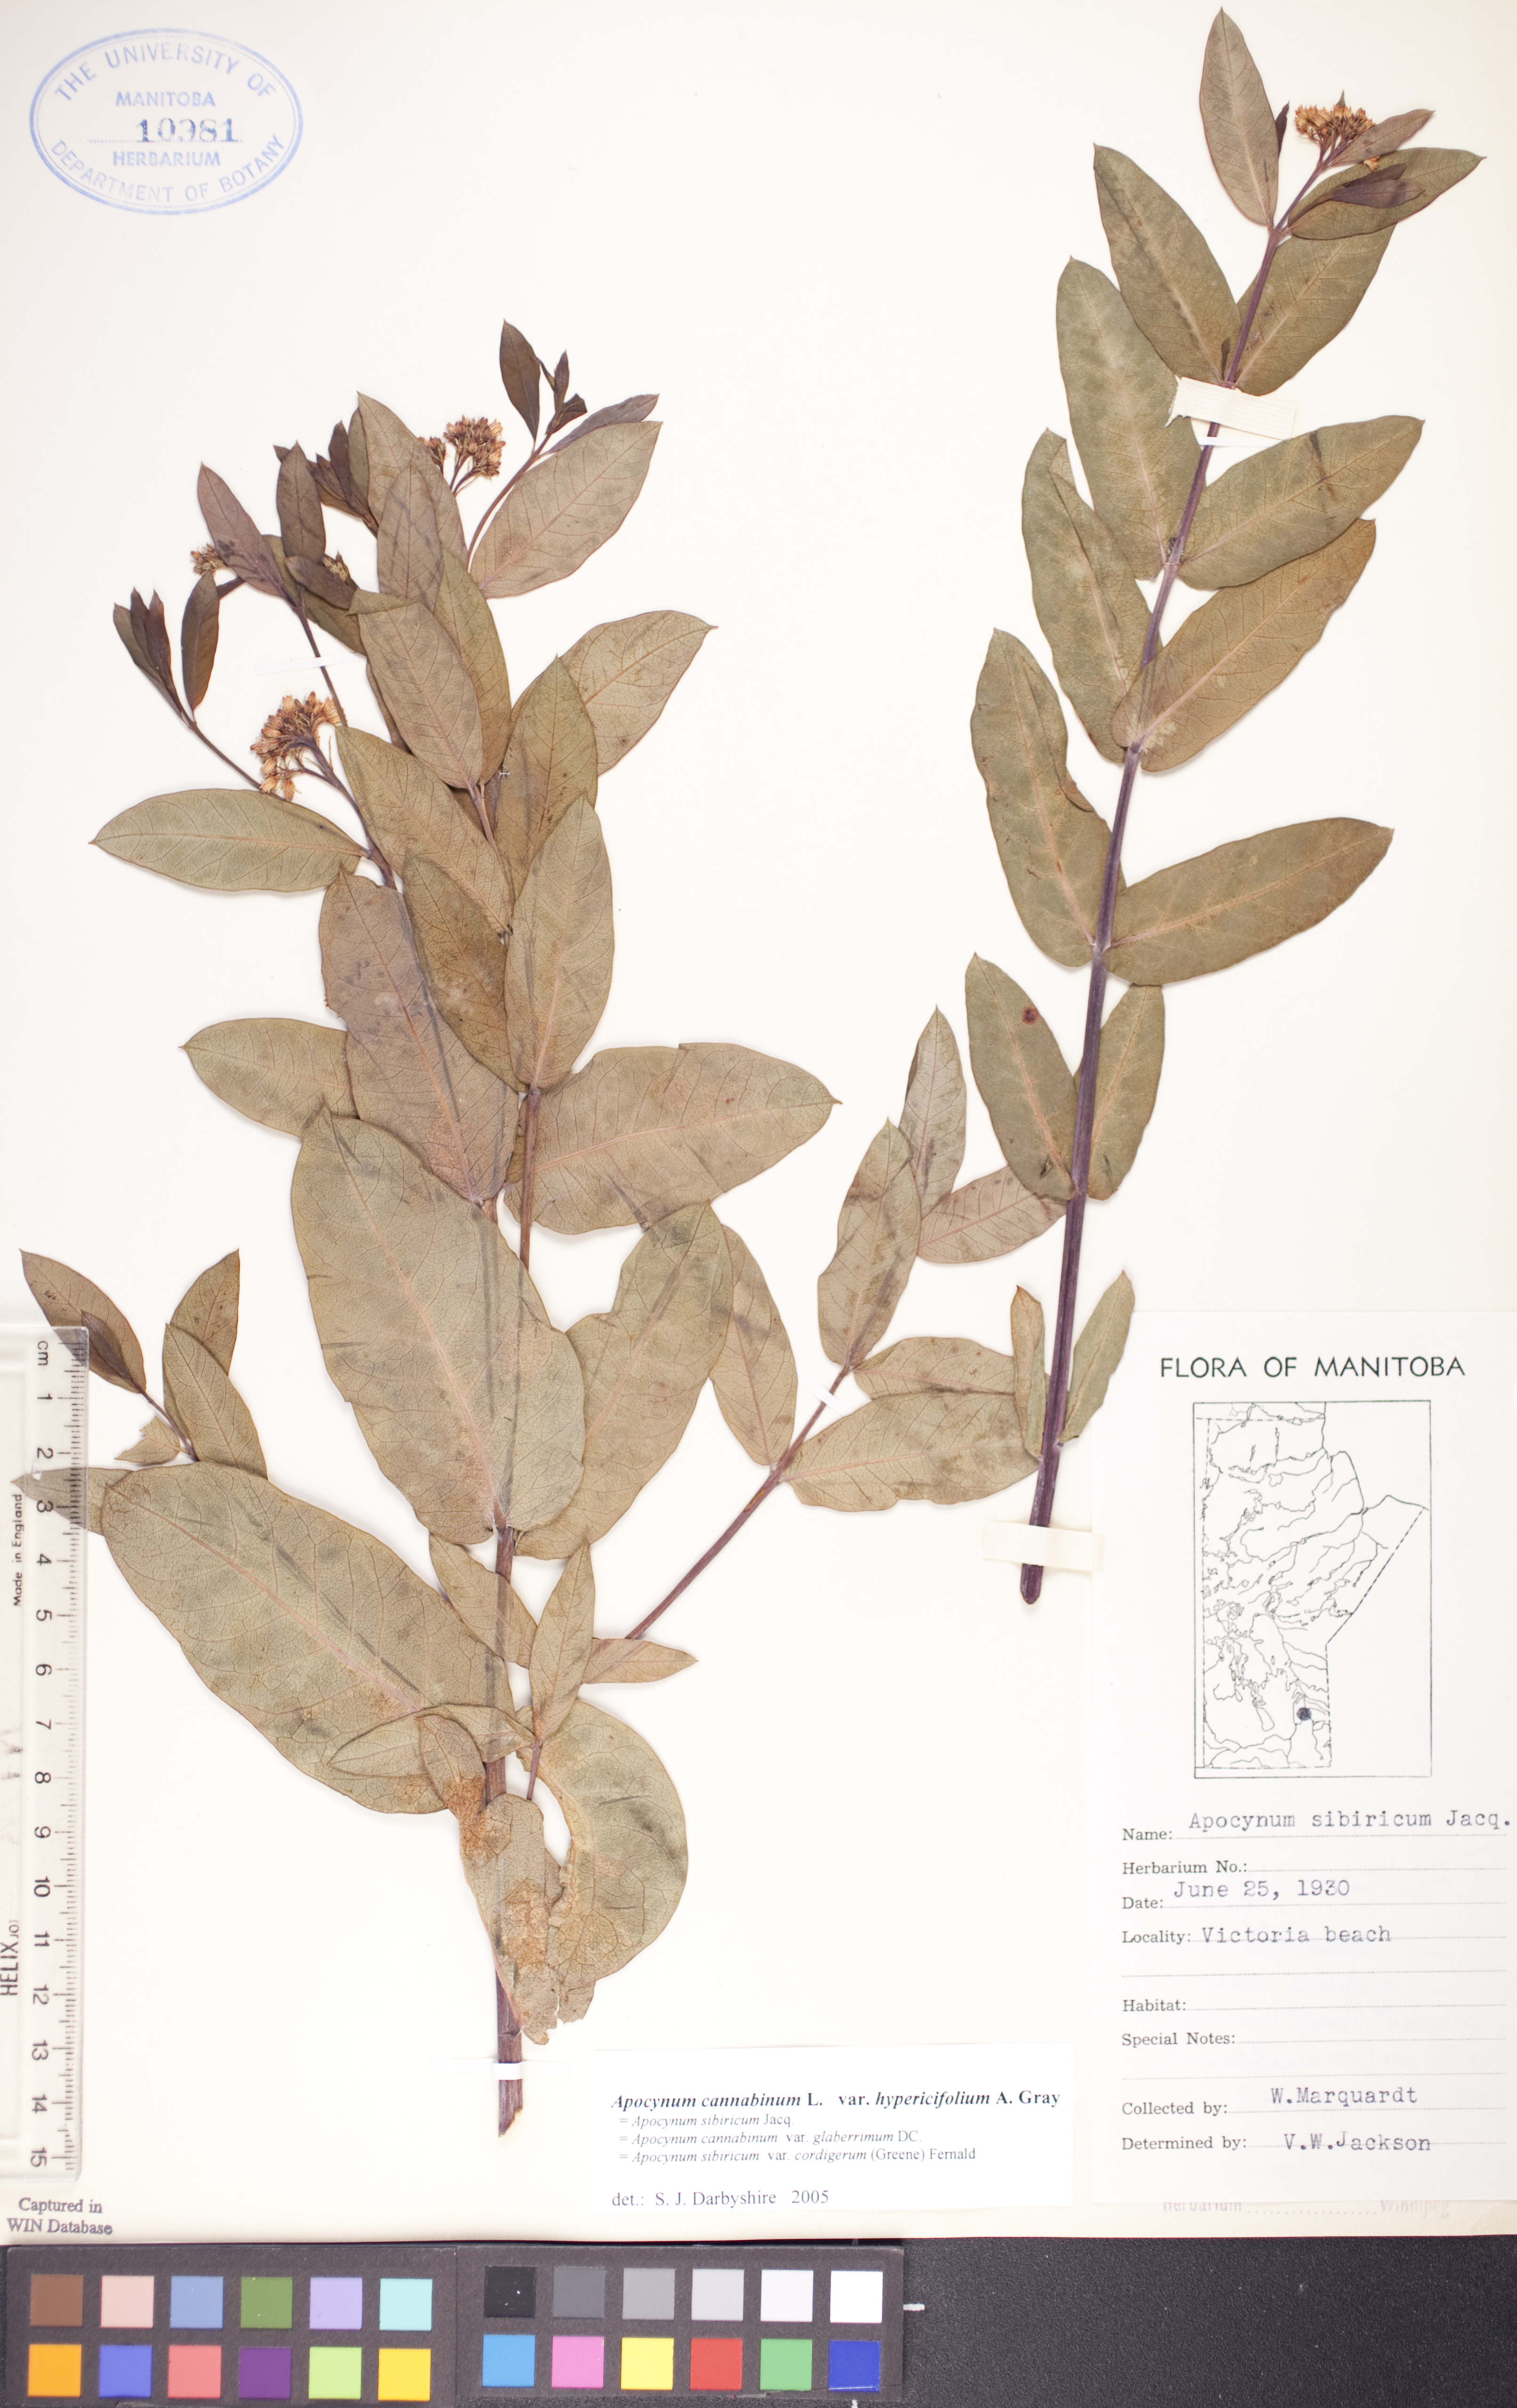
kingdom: Plantae
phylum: Tracheophyta
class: Magnoliopsida
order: Gentianales
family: Apocynaceae
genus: Apocynum
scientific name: Apocynum cannabinum
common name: Hemp dogbane
